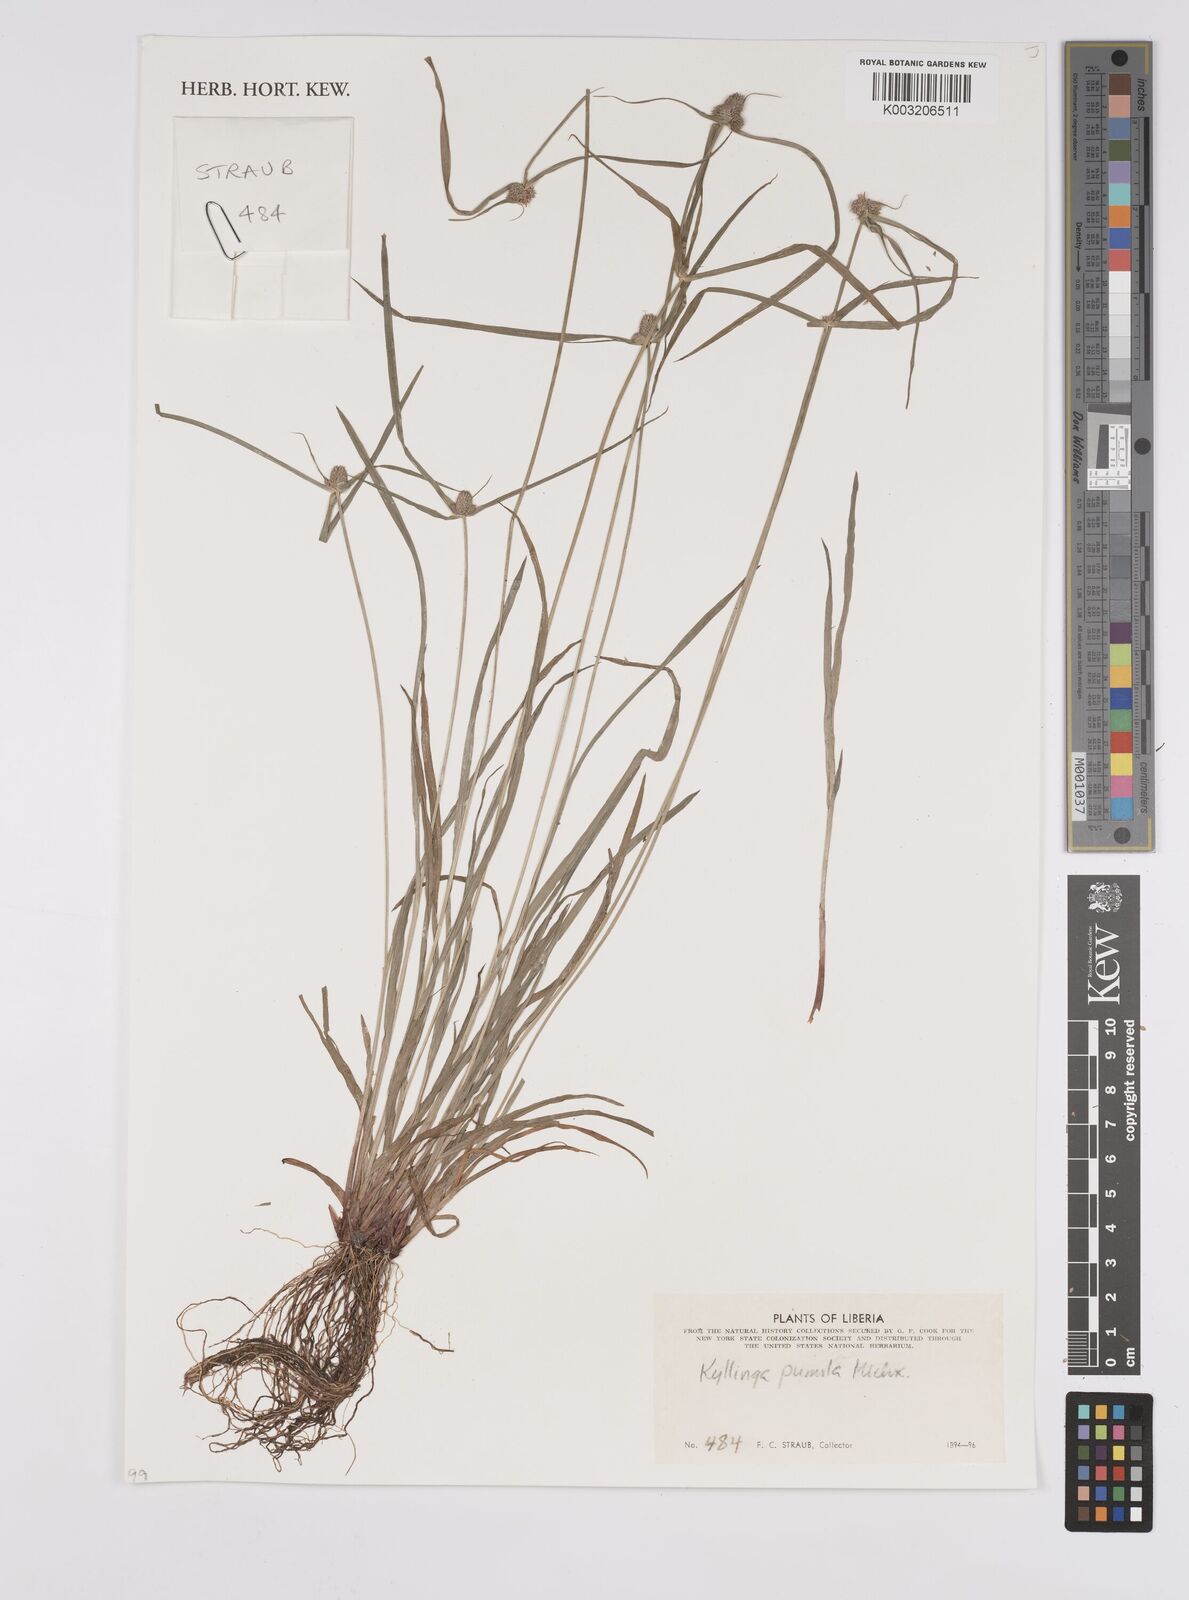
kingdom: Plantae
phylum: Tracheophyta
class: Liliopsida
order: Poales
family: Cyperaceae
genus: Cyperus
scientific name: Cyperus
